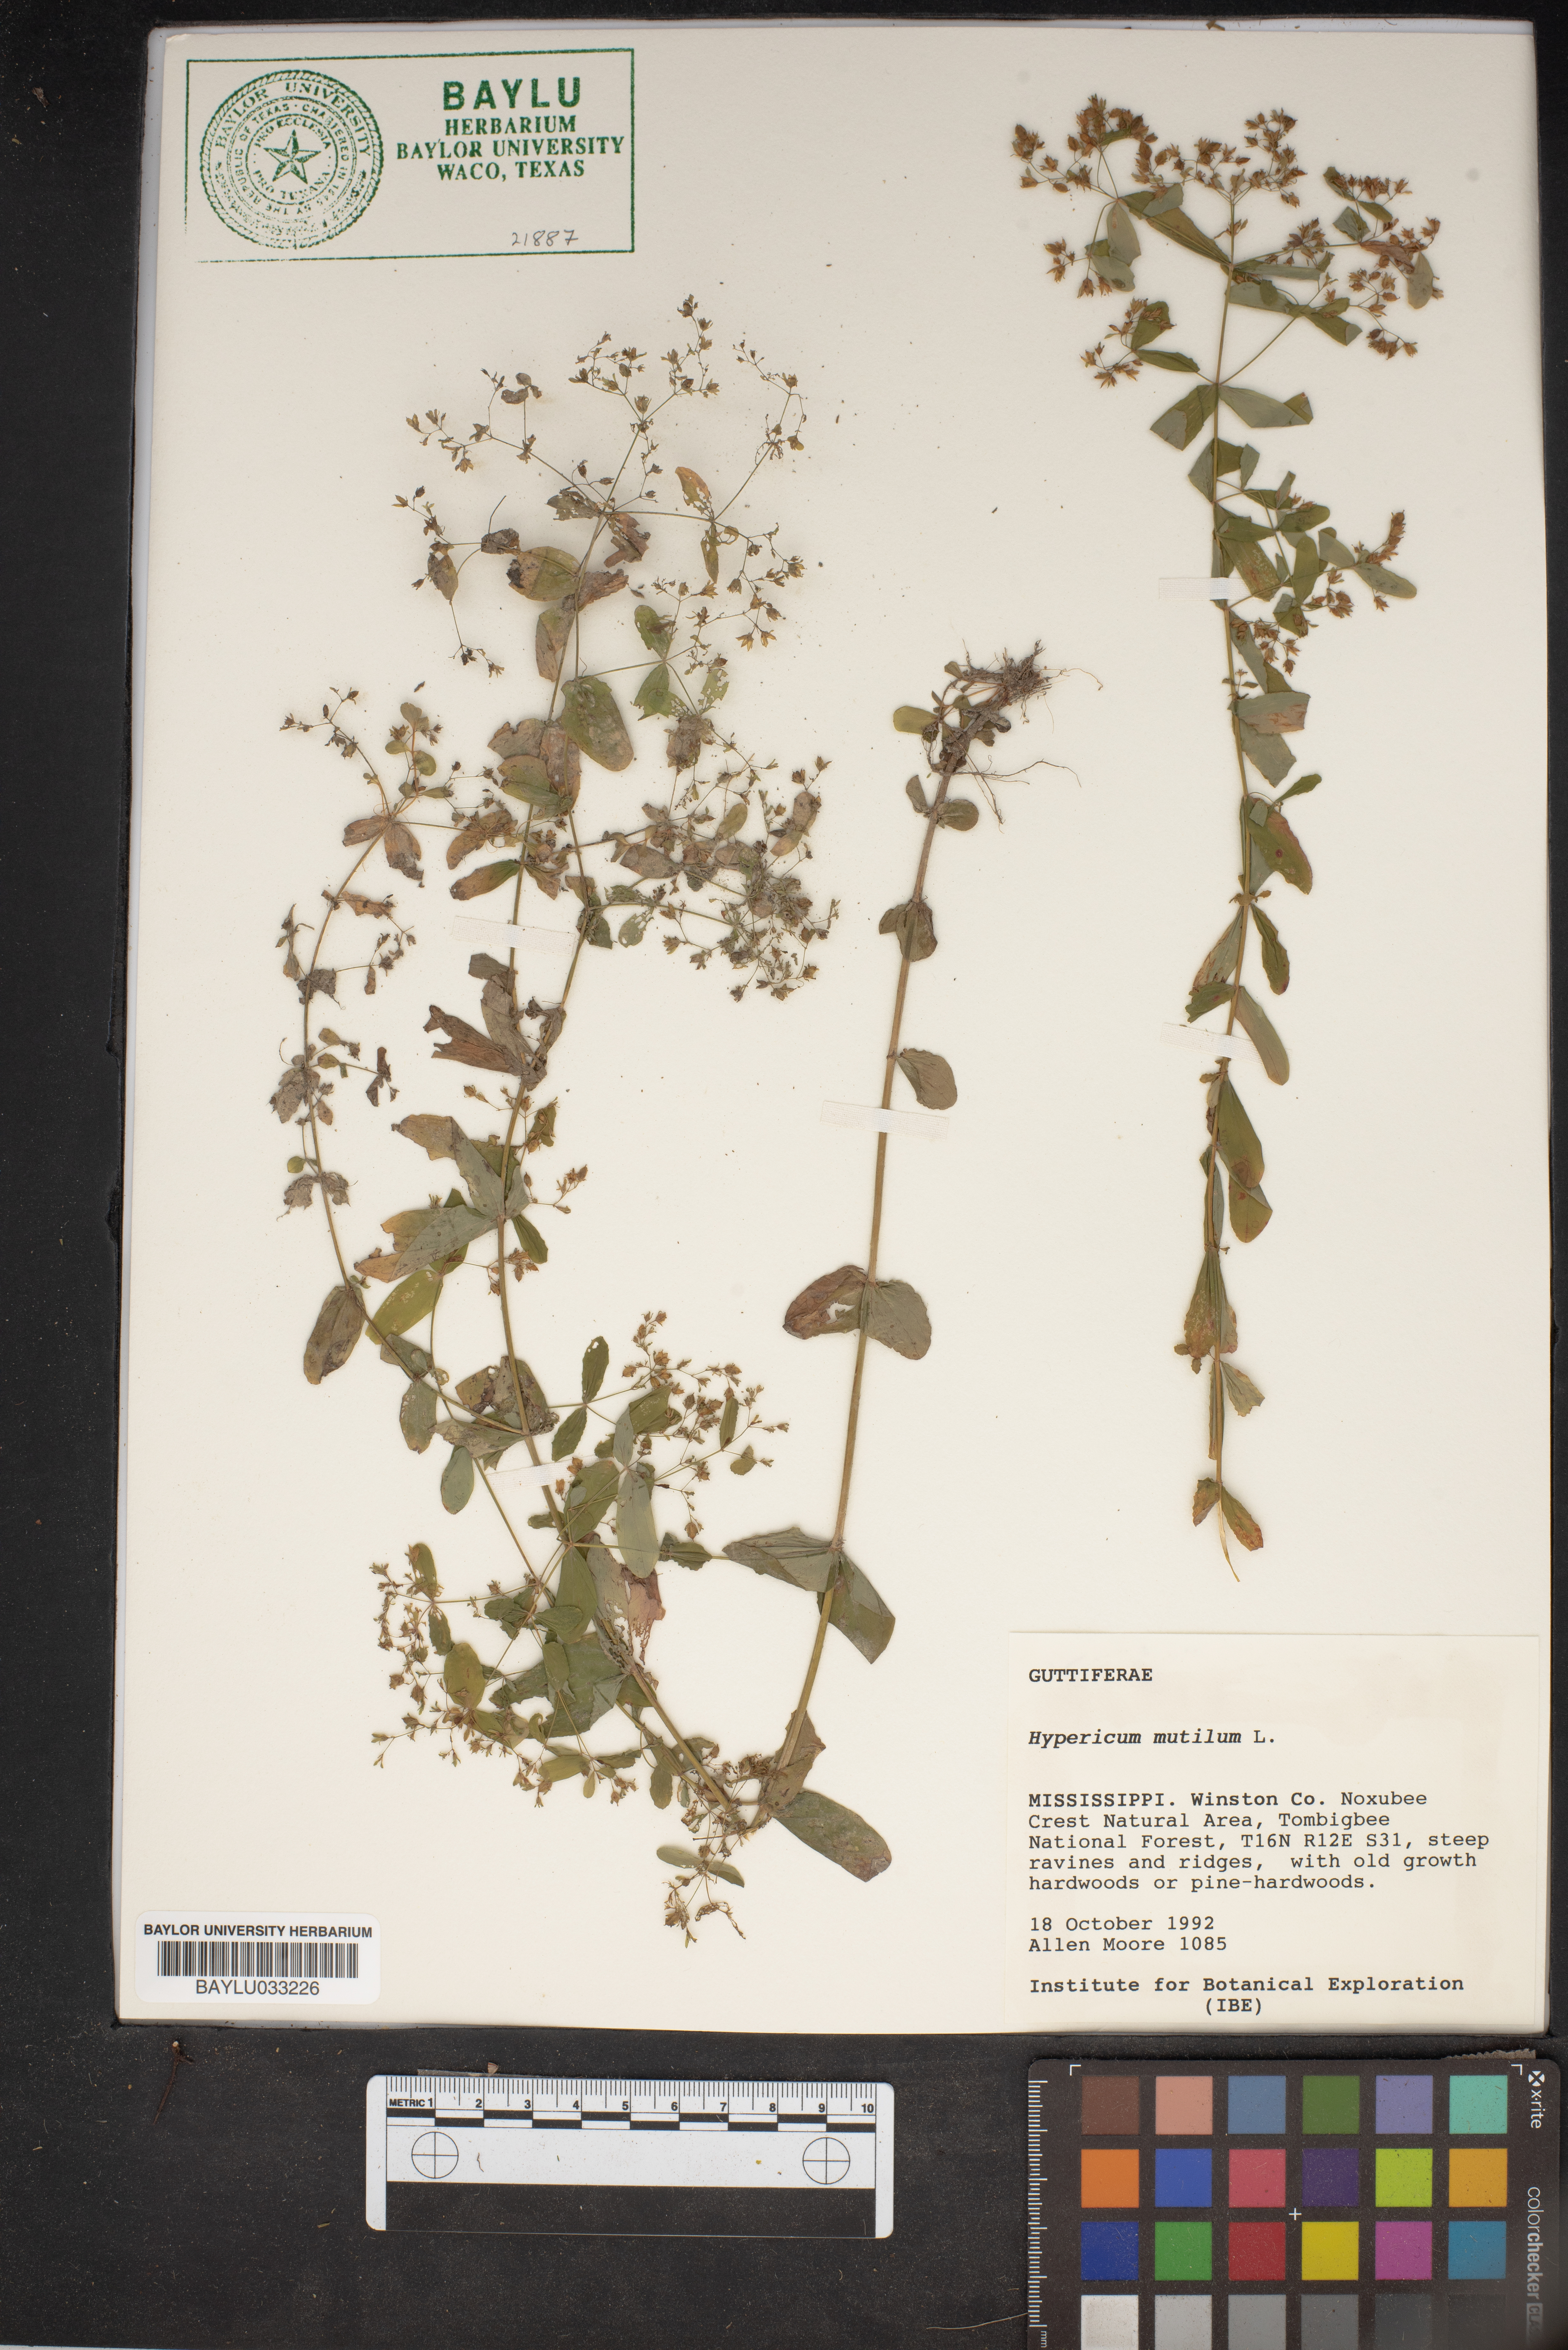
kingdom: Plantae
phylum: Tracheophyta
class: Magnoliopsida
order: Malpighiales
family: Hypericaceae
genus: Hypericum
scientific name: Hypericum mutilum
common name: Dwarf st. john's-wort
